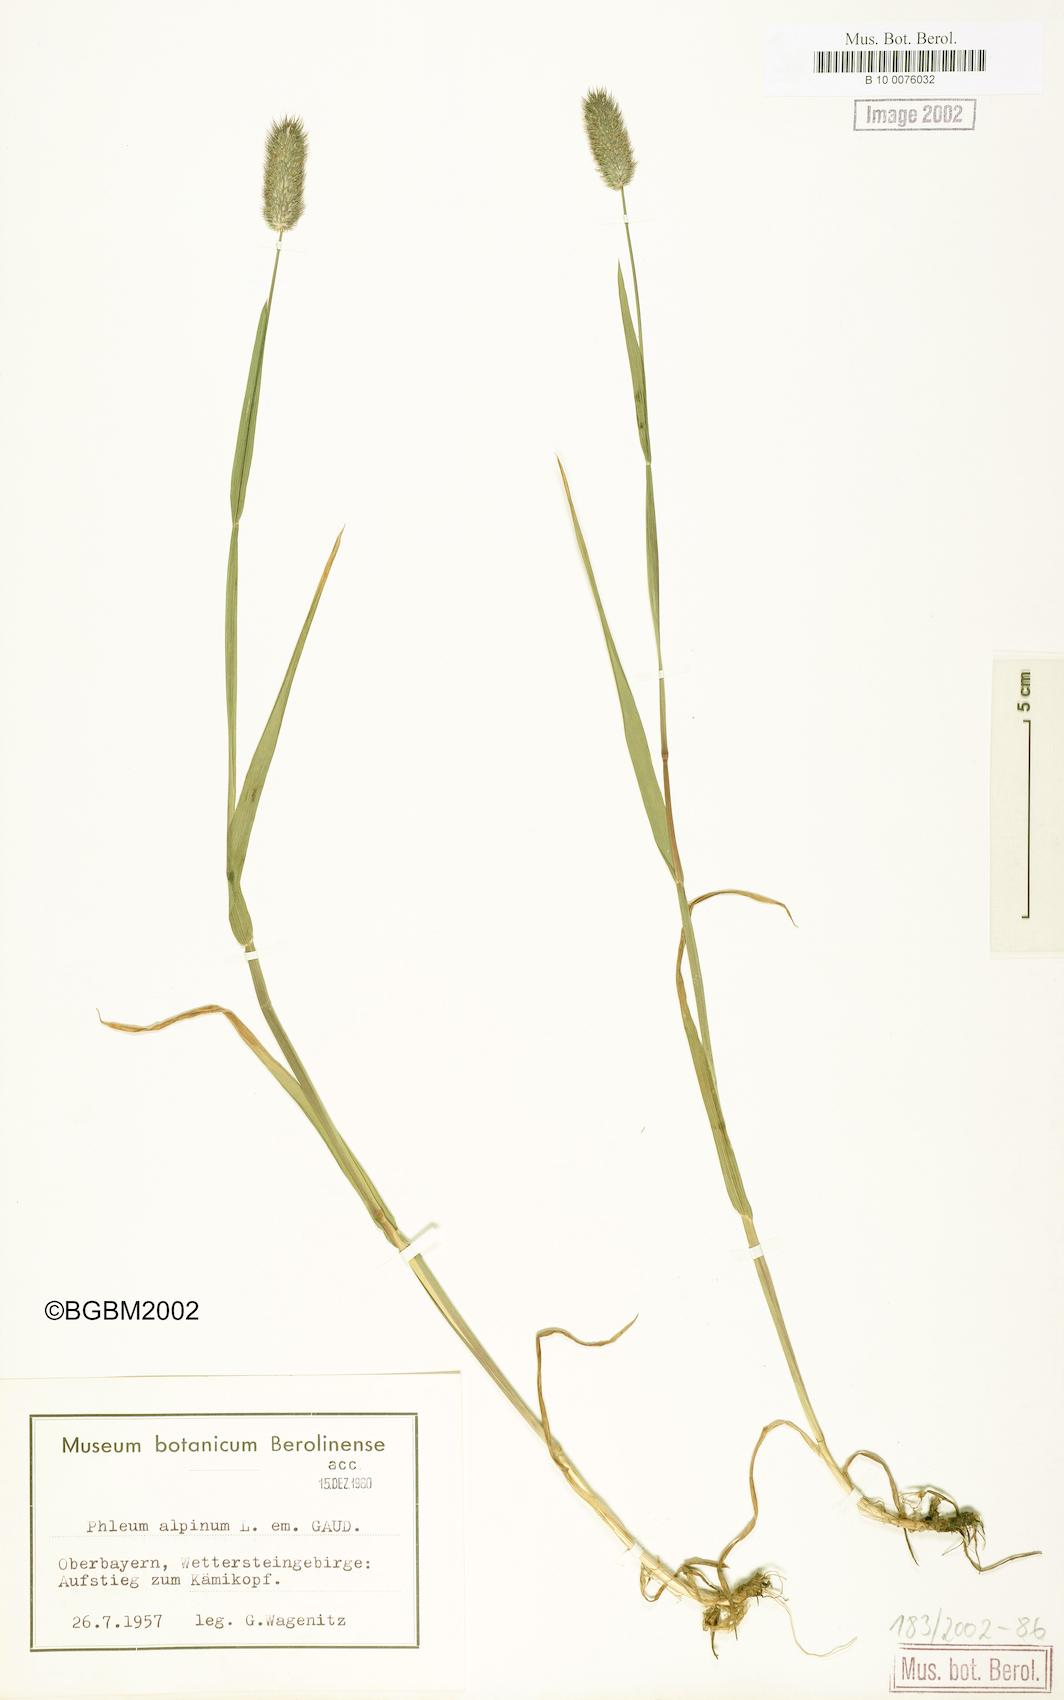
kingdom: Plantae
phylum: Tracheophyta
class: Liliopsida
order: Poales
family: Poaceae
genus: Phleum
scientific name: Phleum alpinum
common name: Alpine cat's-tail
